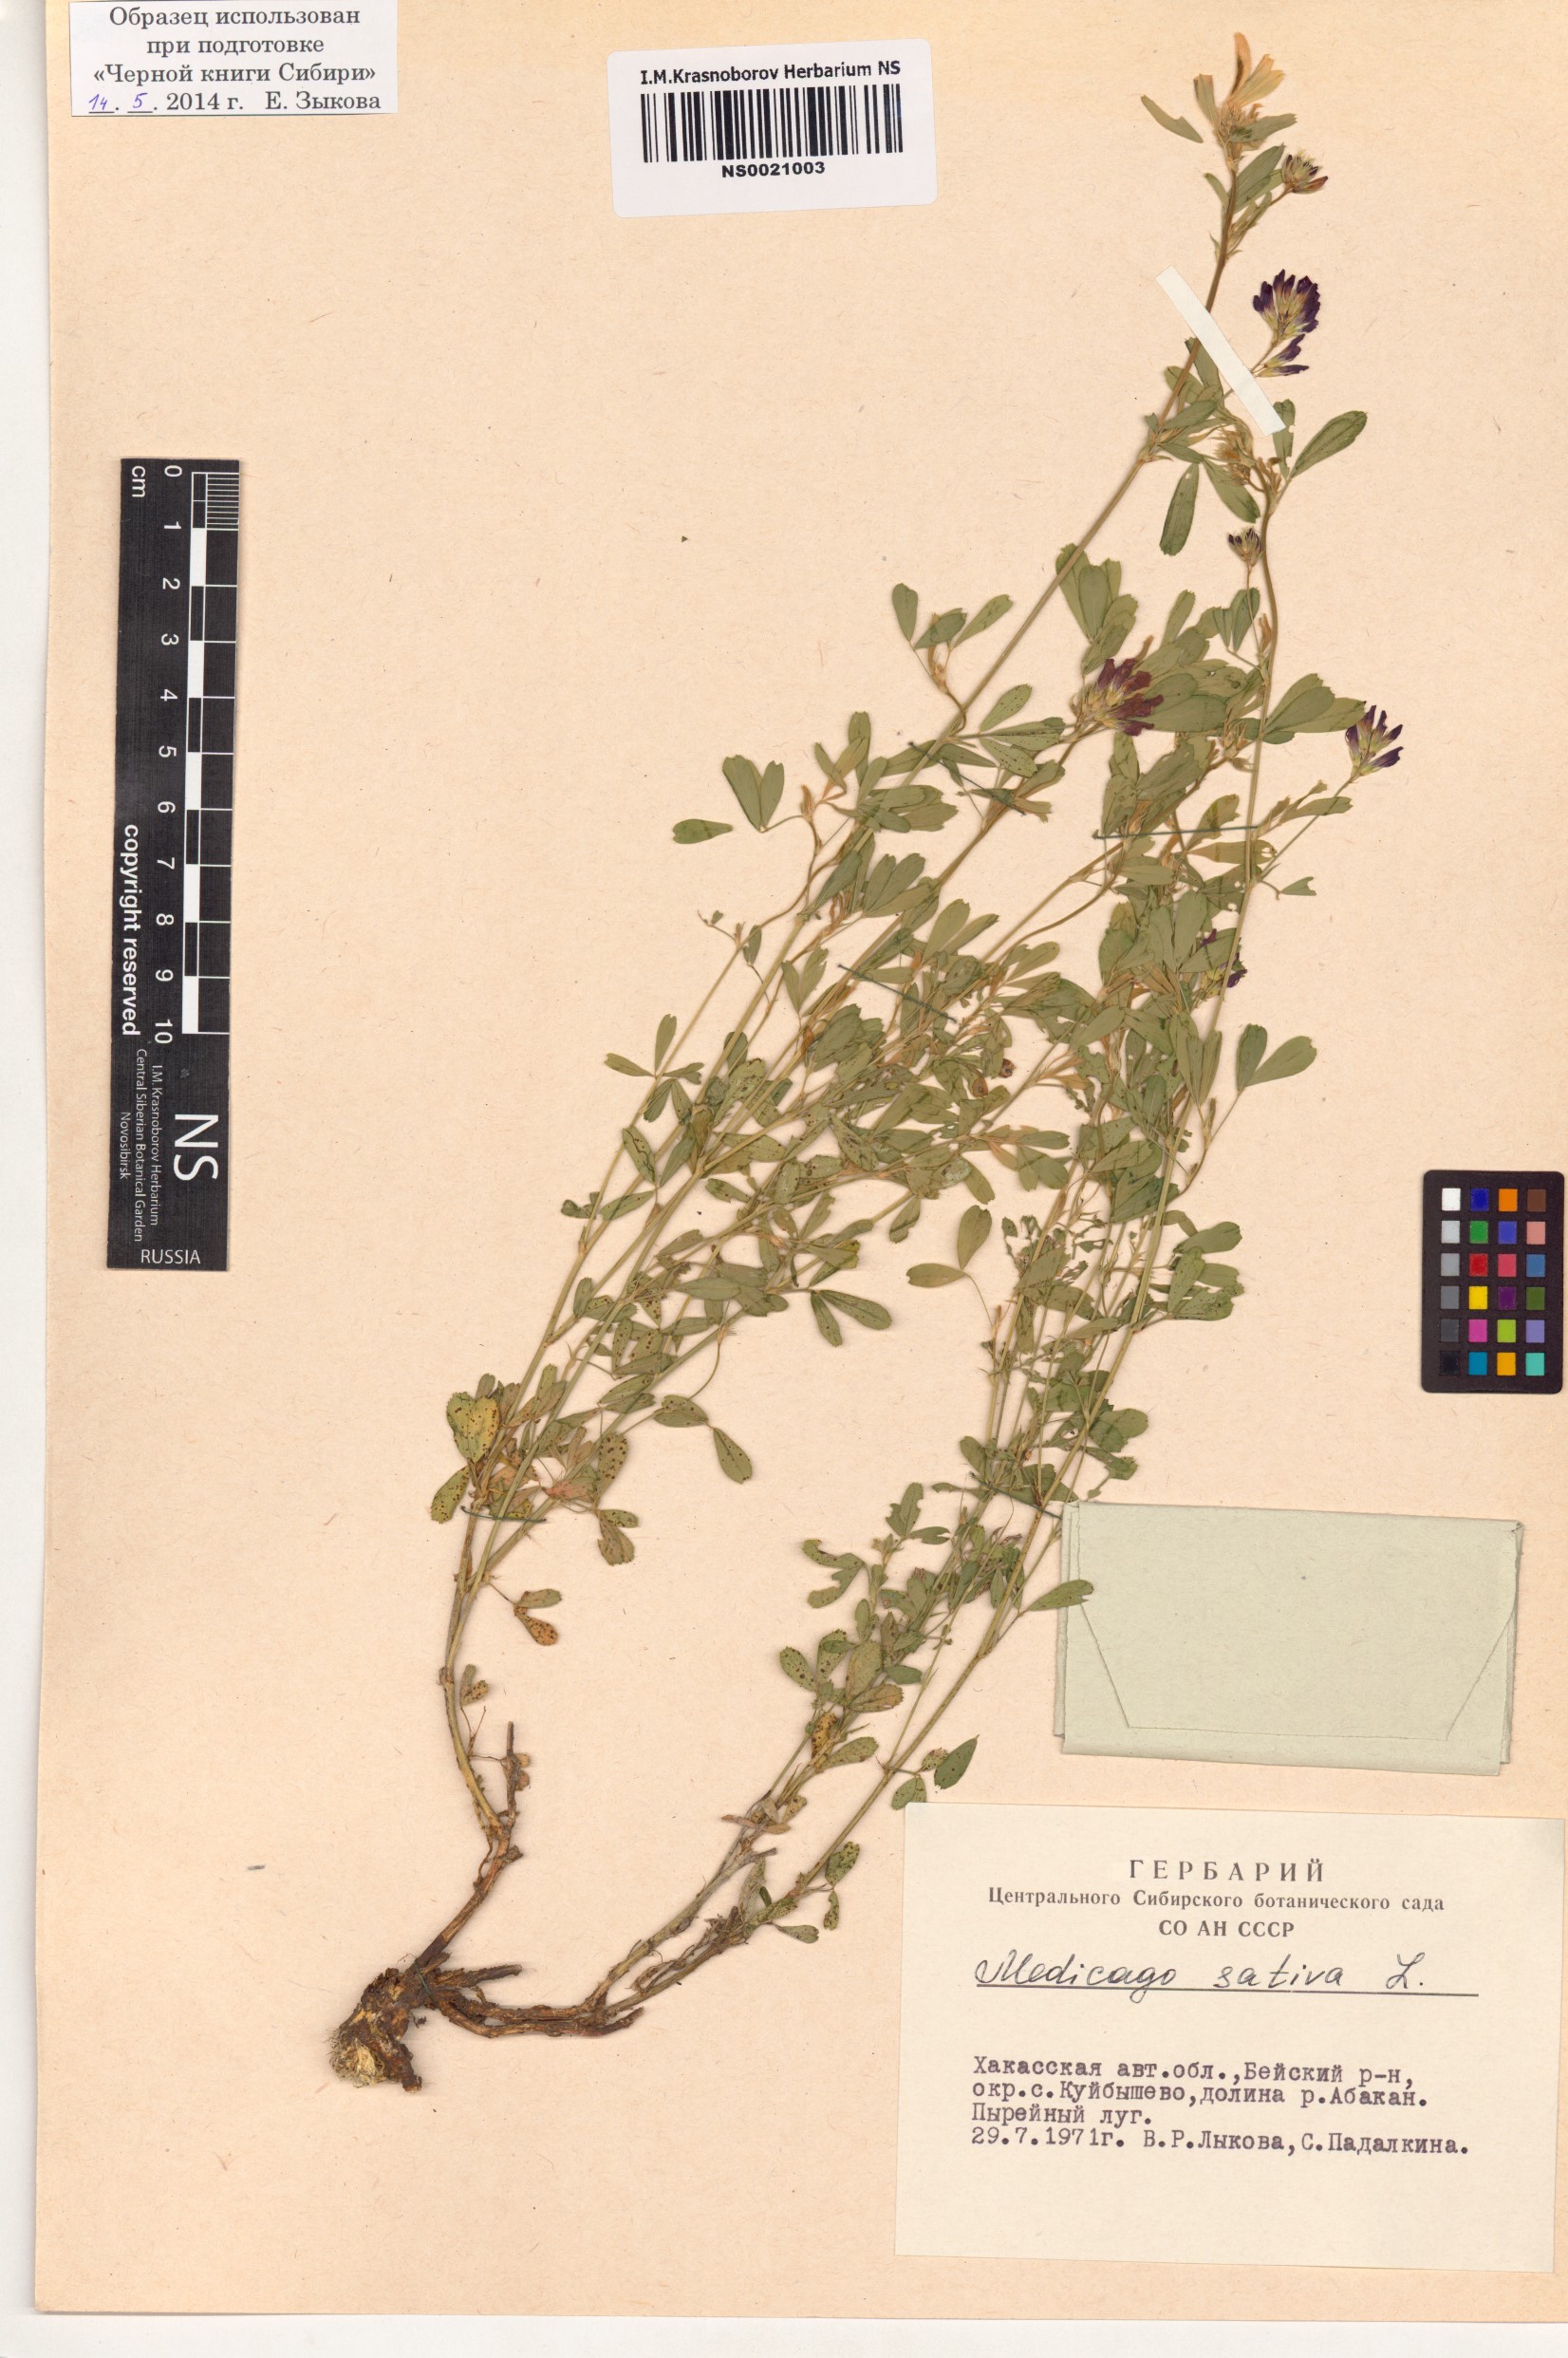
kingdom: Plantae
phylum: Tracheophyta
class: Magnoliopsida
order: Fabales
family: Fabaceae
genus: Medicago
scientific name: Medicago sativa
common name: Alfalfa
